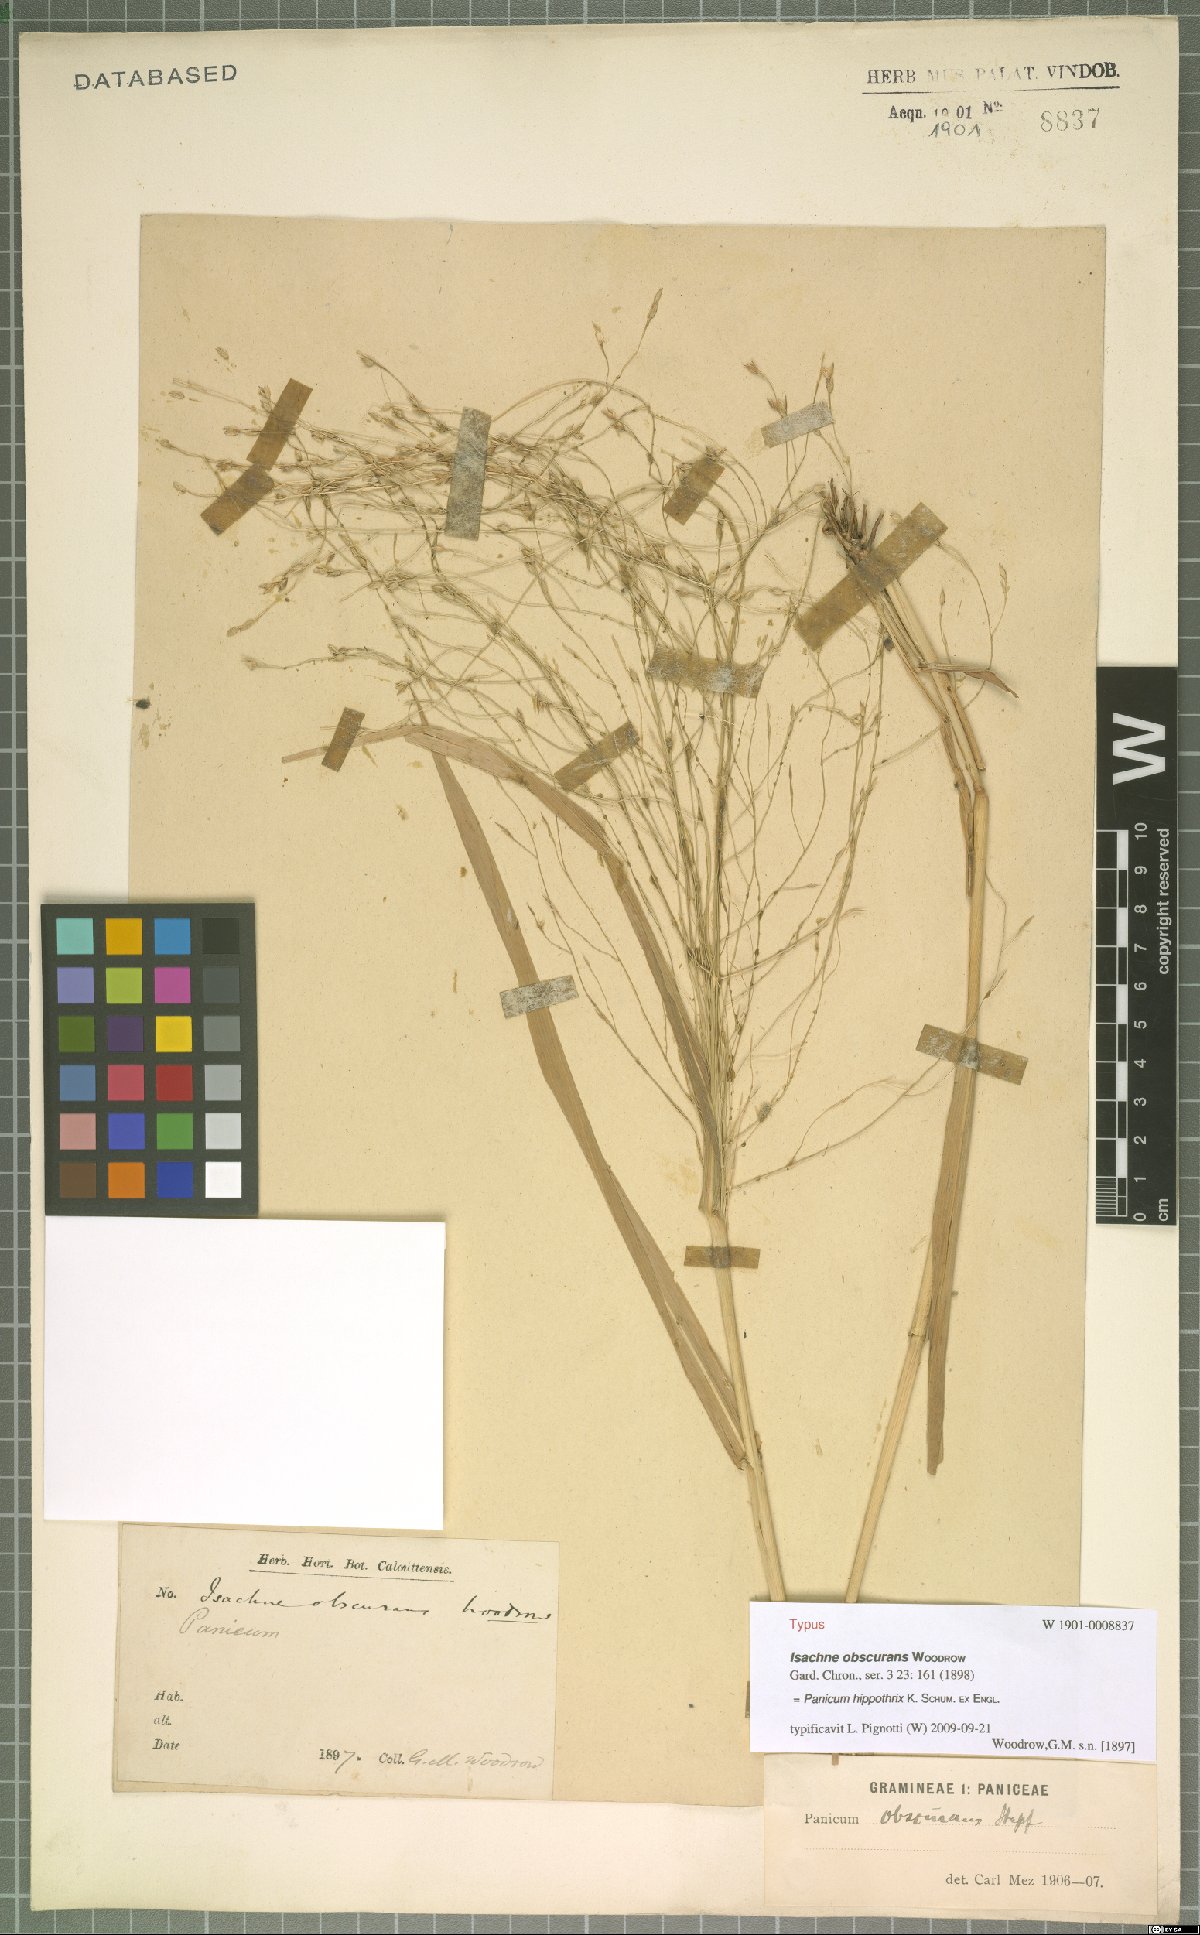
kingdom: Plantae
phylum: Tracheophyta
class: Liliopsida
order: Poales
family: Poaceae
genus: Panicum
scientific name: Panicum hippothrix
